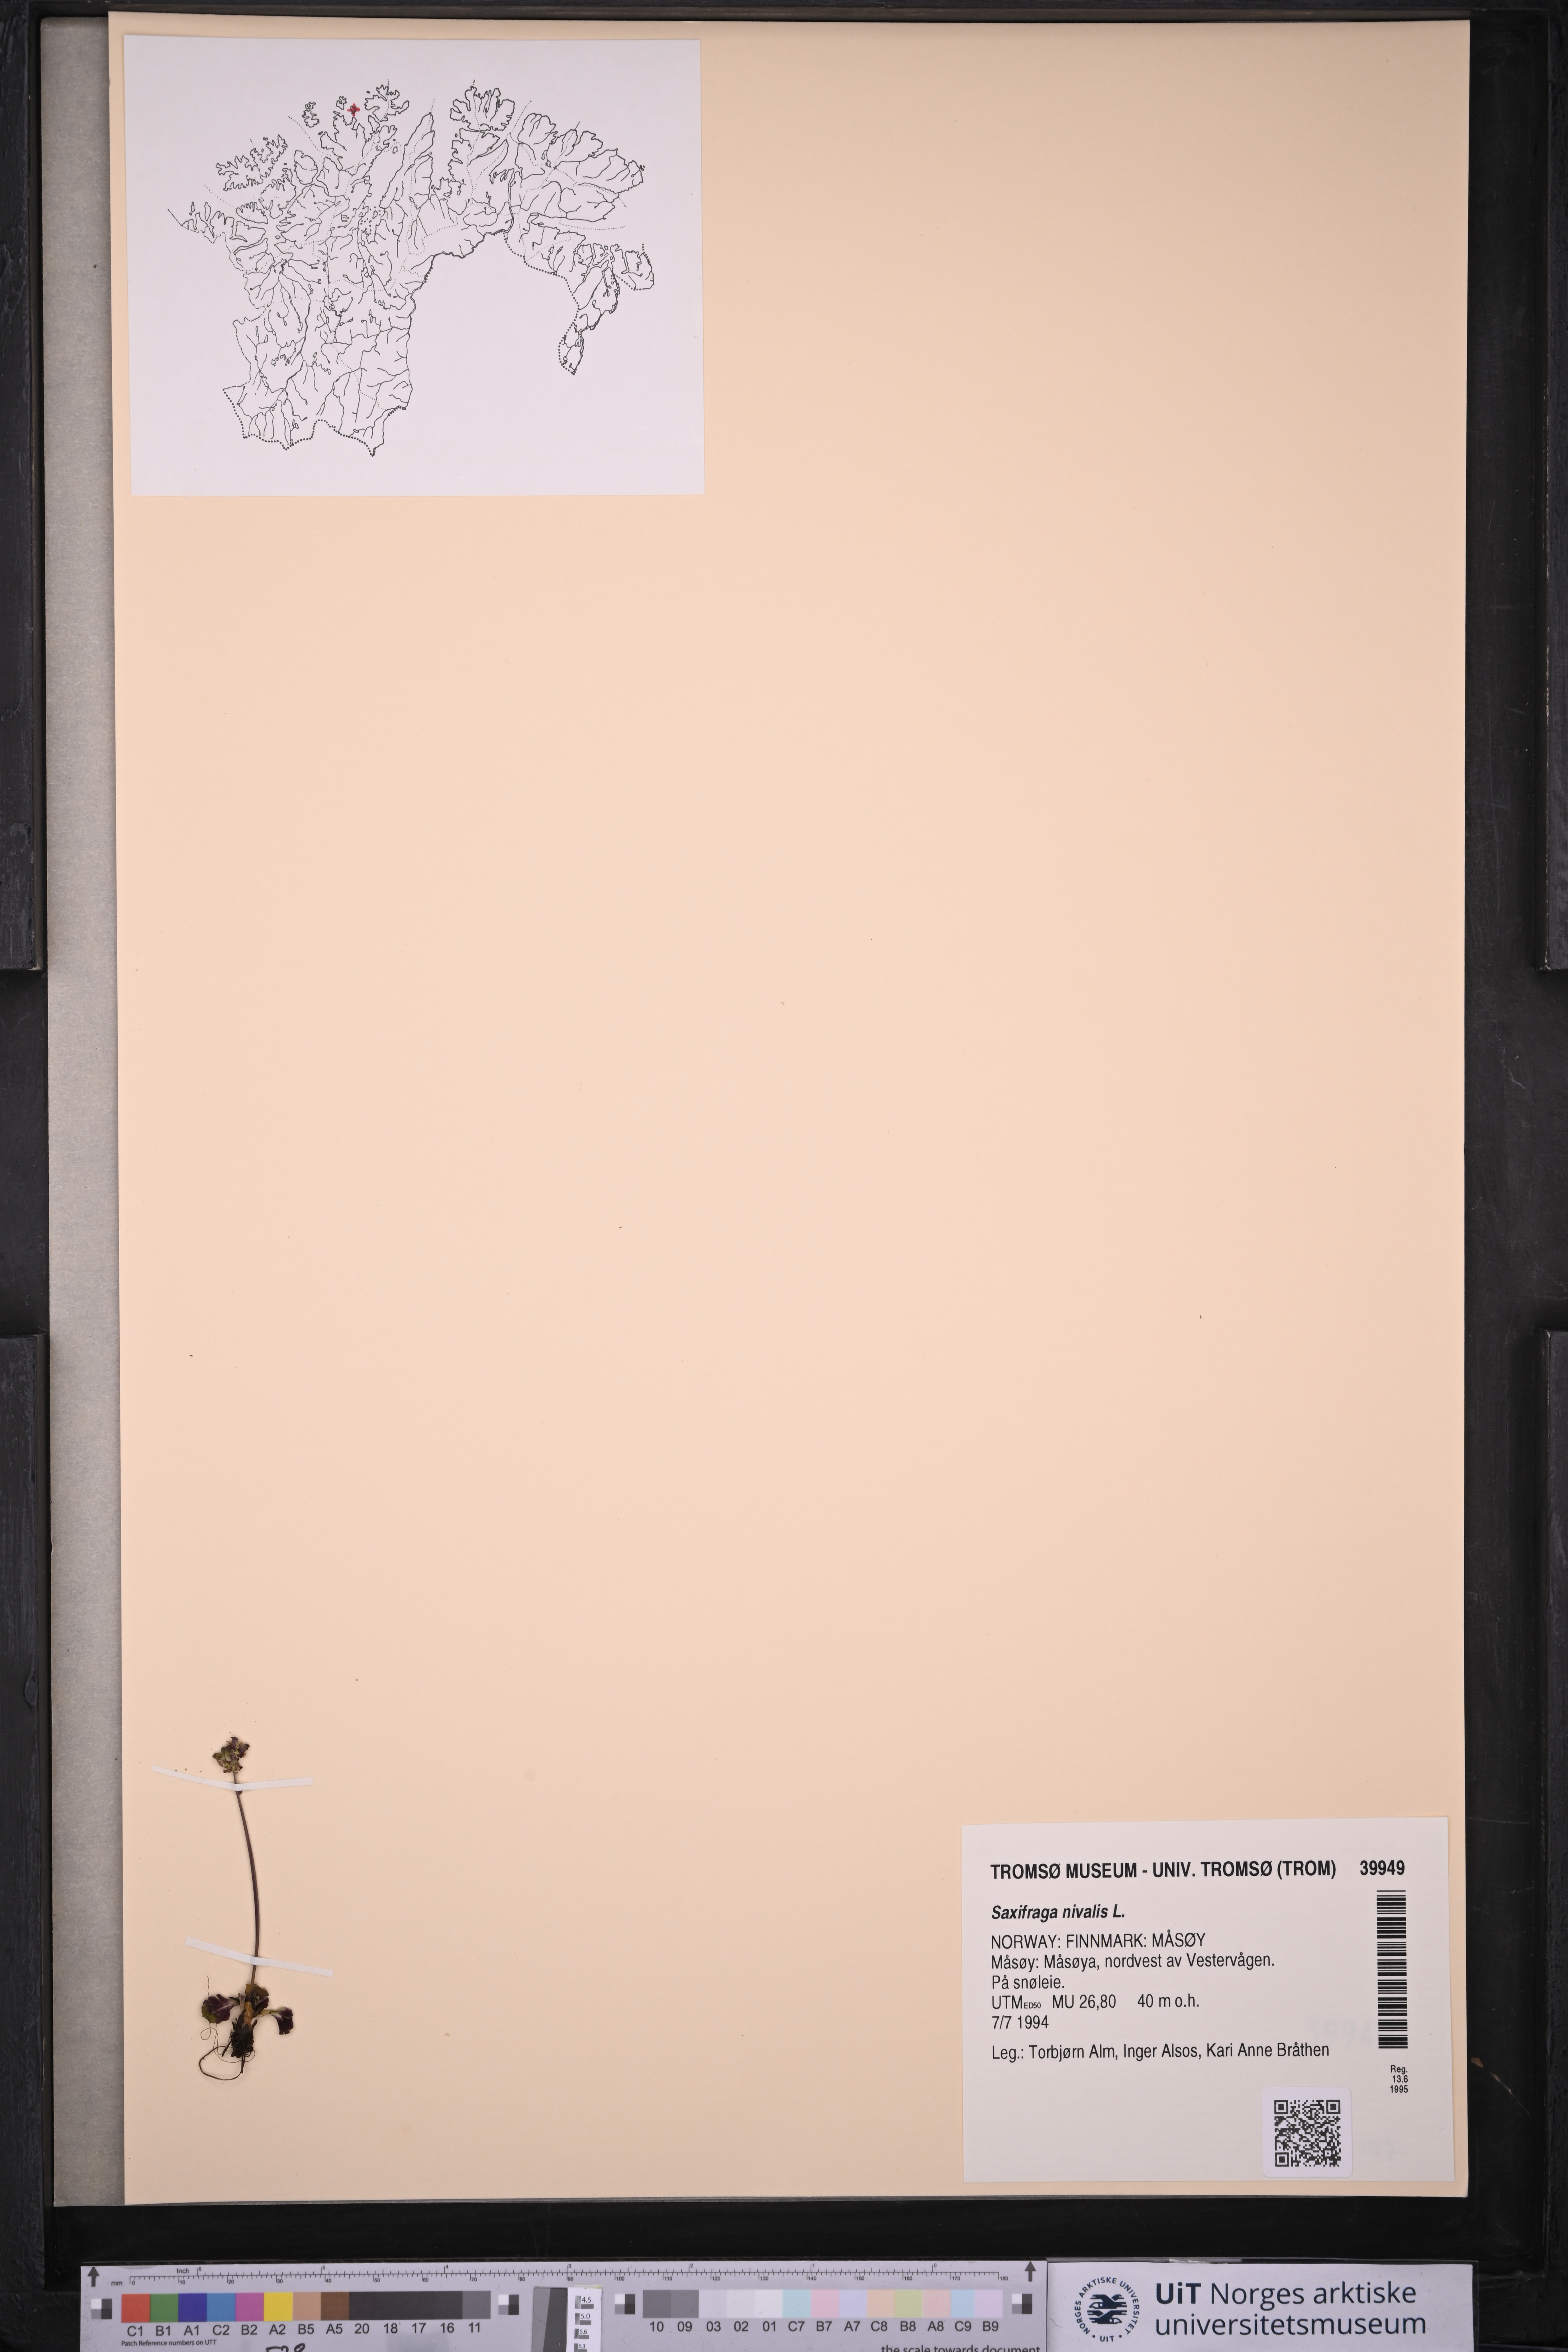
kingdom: Plantae
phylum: Tracheophyta
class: Magnoliopsida
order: Saxifragales
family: Saxifragaceae
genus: Micranthes
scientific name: Micranthes nivalis
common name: Alpine saxifrage
